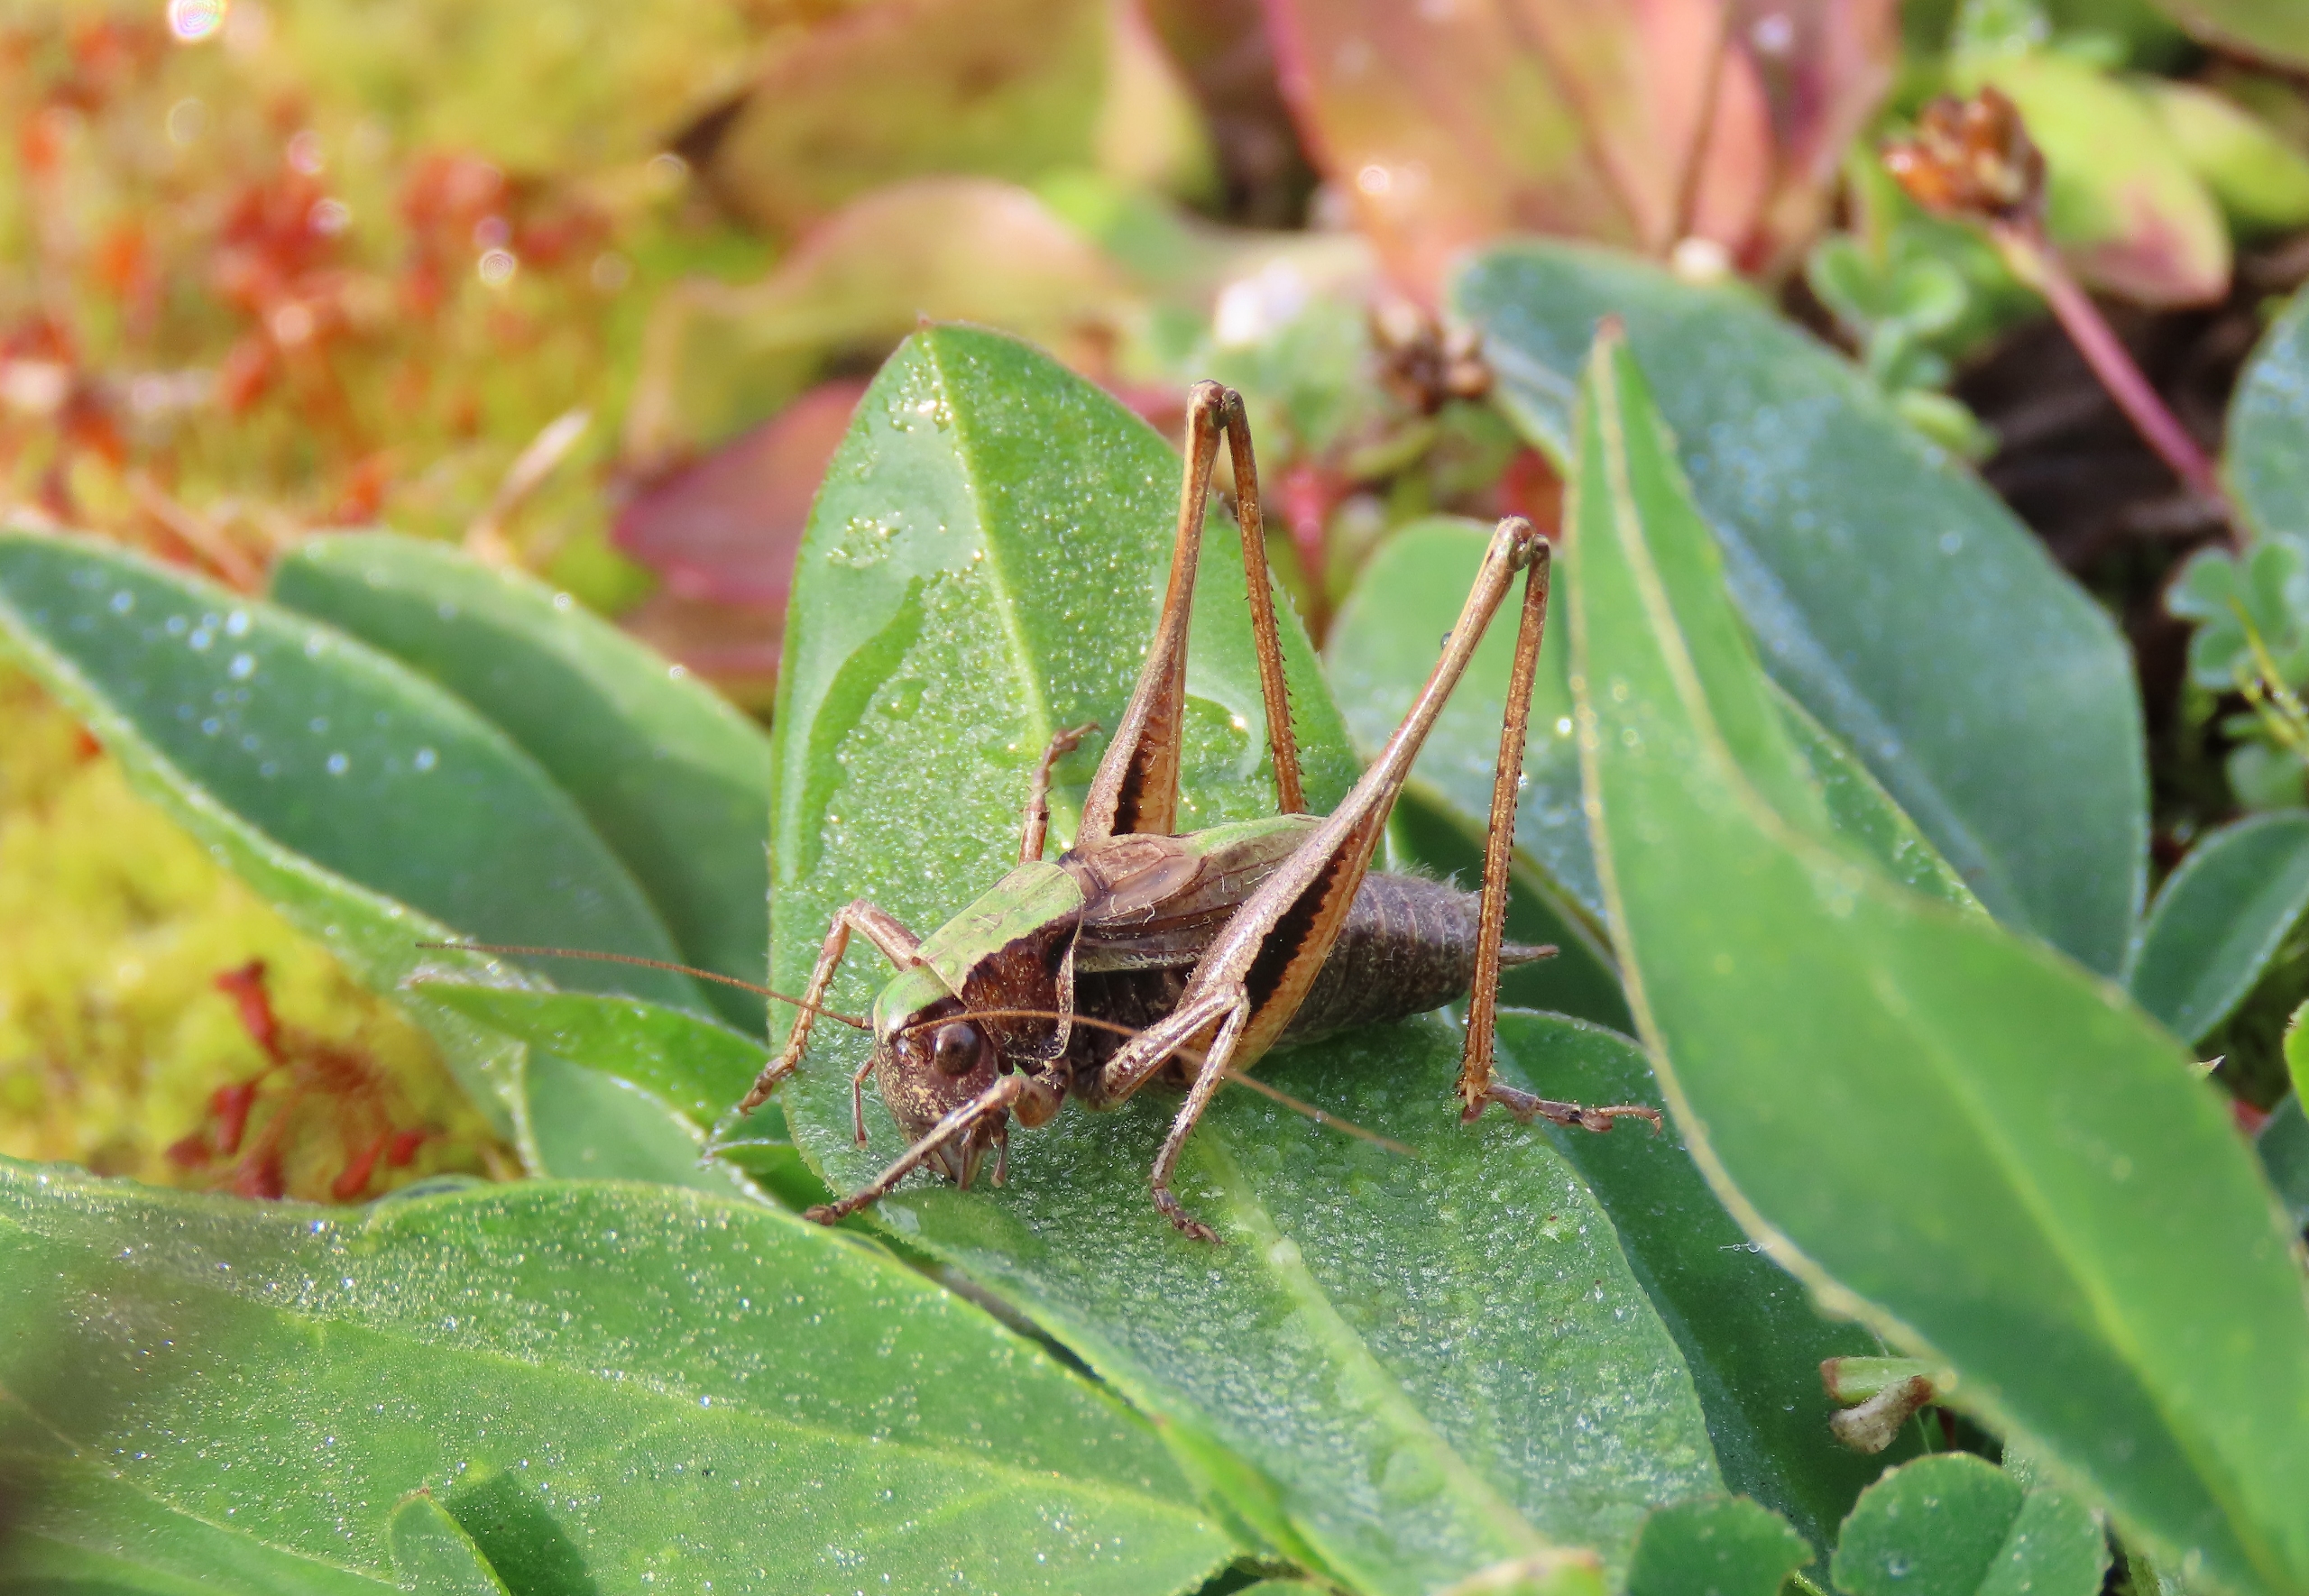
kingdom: Animalia
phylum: Arthropoda
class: Insecta
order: Orthoptera
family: Tettigoniidae
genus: Metrioptera
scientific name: Metrioptera brachyptera
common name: Hedegræshoppe
